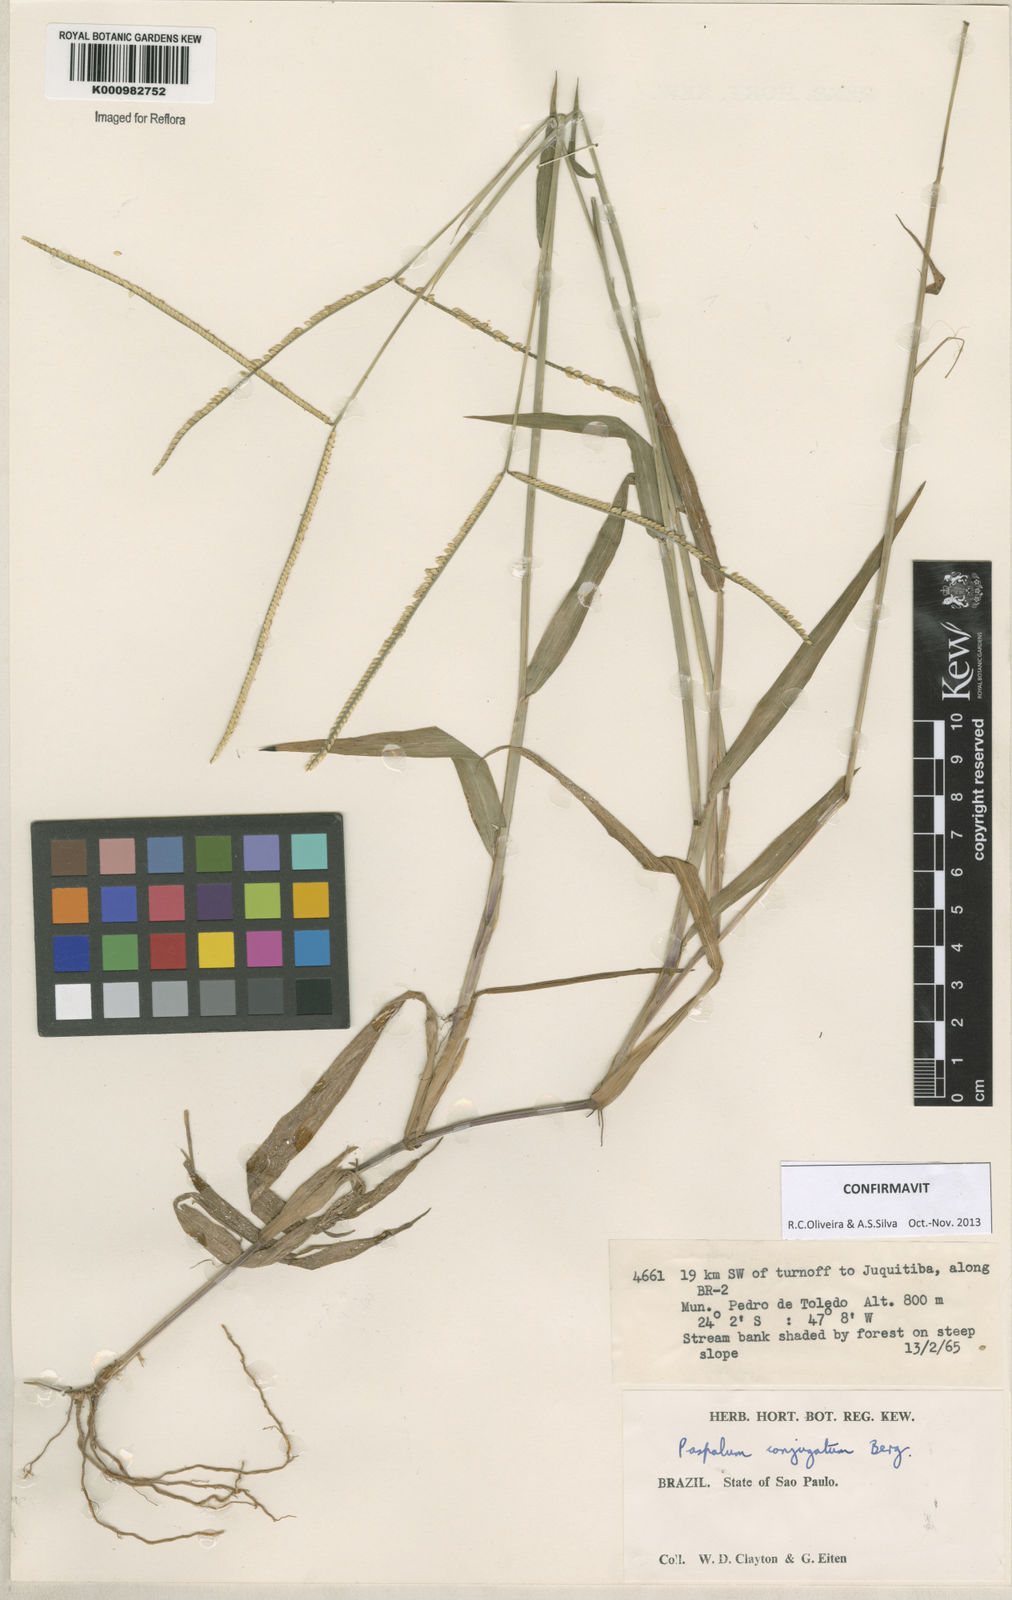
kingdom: Plantae
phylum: Tracheophyta
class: Liliopsida
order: Poales
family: Poaceae
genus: Paspalum
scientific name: Paspalum conjugatum
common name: Hilograss
